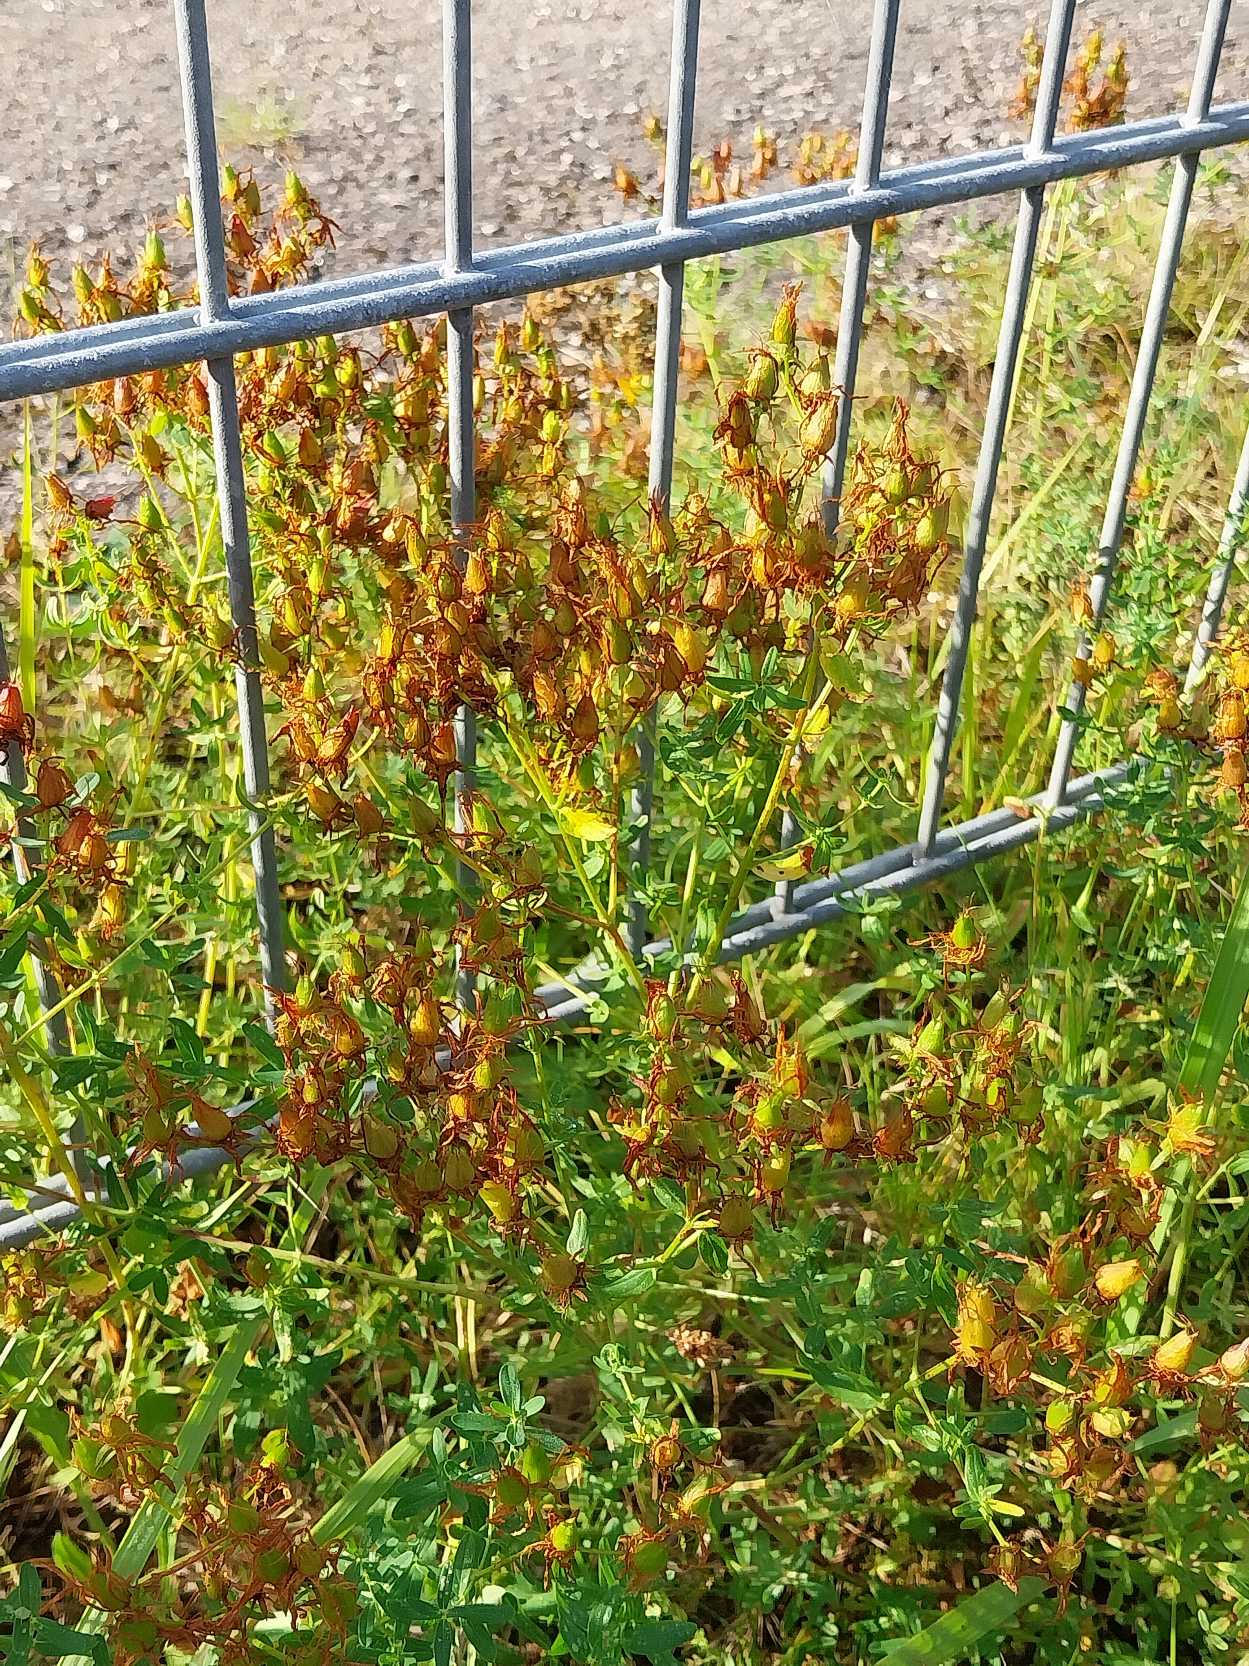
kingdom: Plantae
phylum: Tracheophyta
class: Magnoliopsida
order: Malpighiales
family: Hypericaceae
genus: Hypericum
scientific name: Hypericum perforatum
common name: Prikbladet perikon
